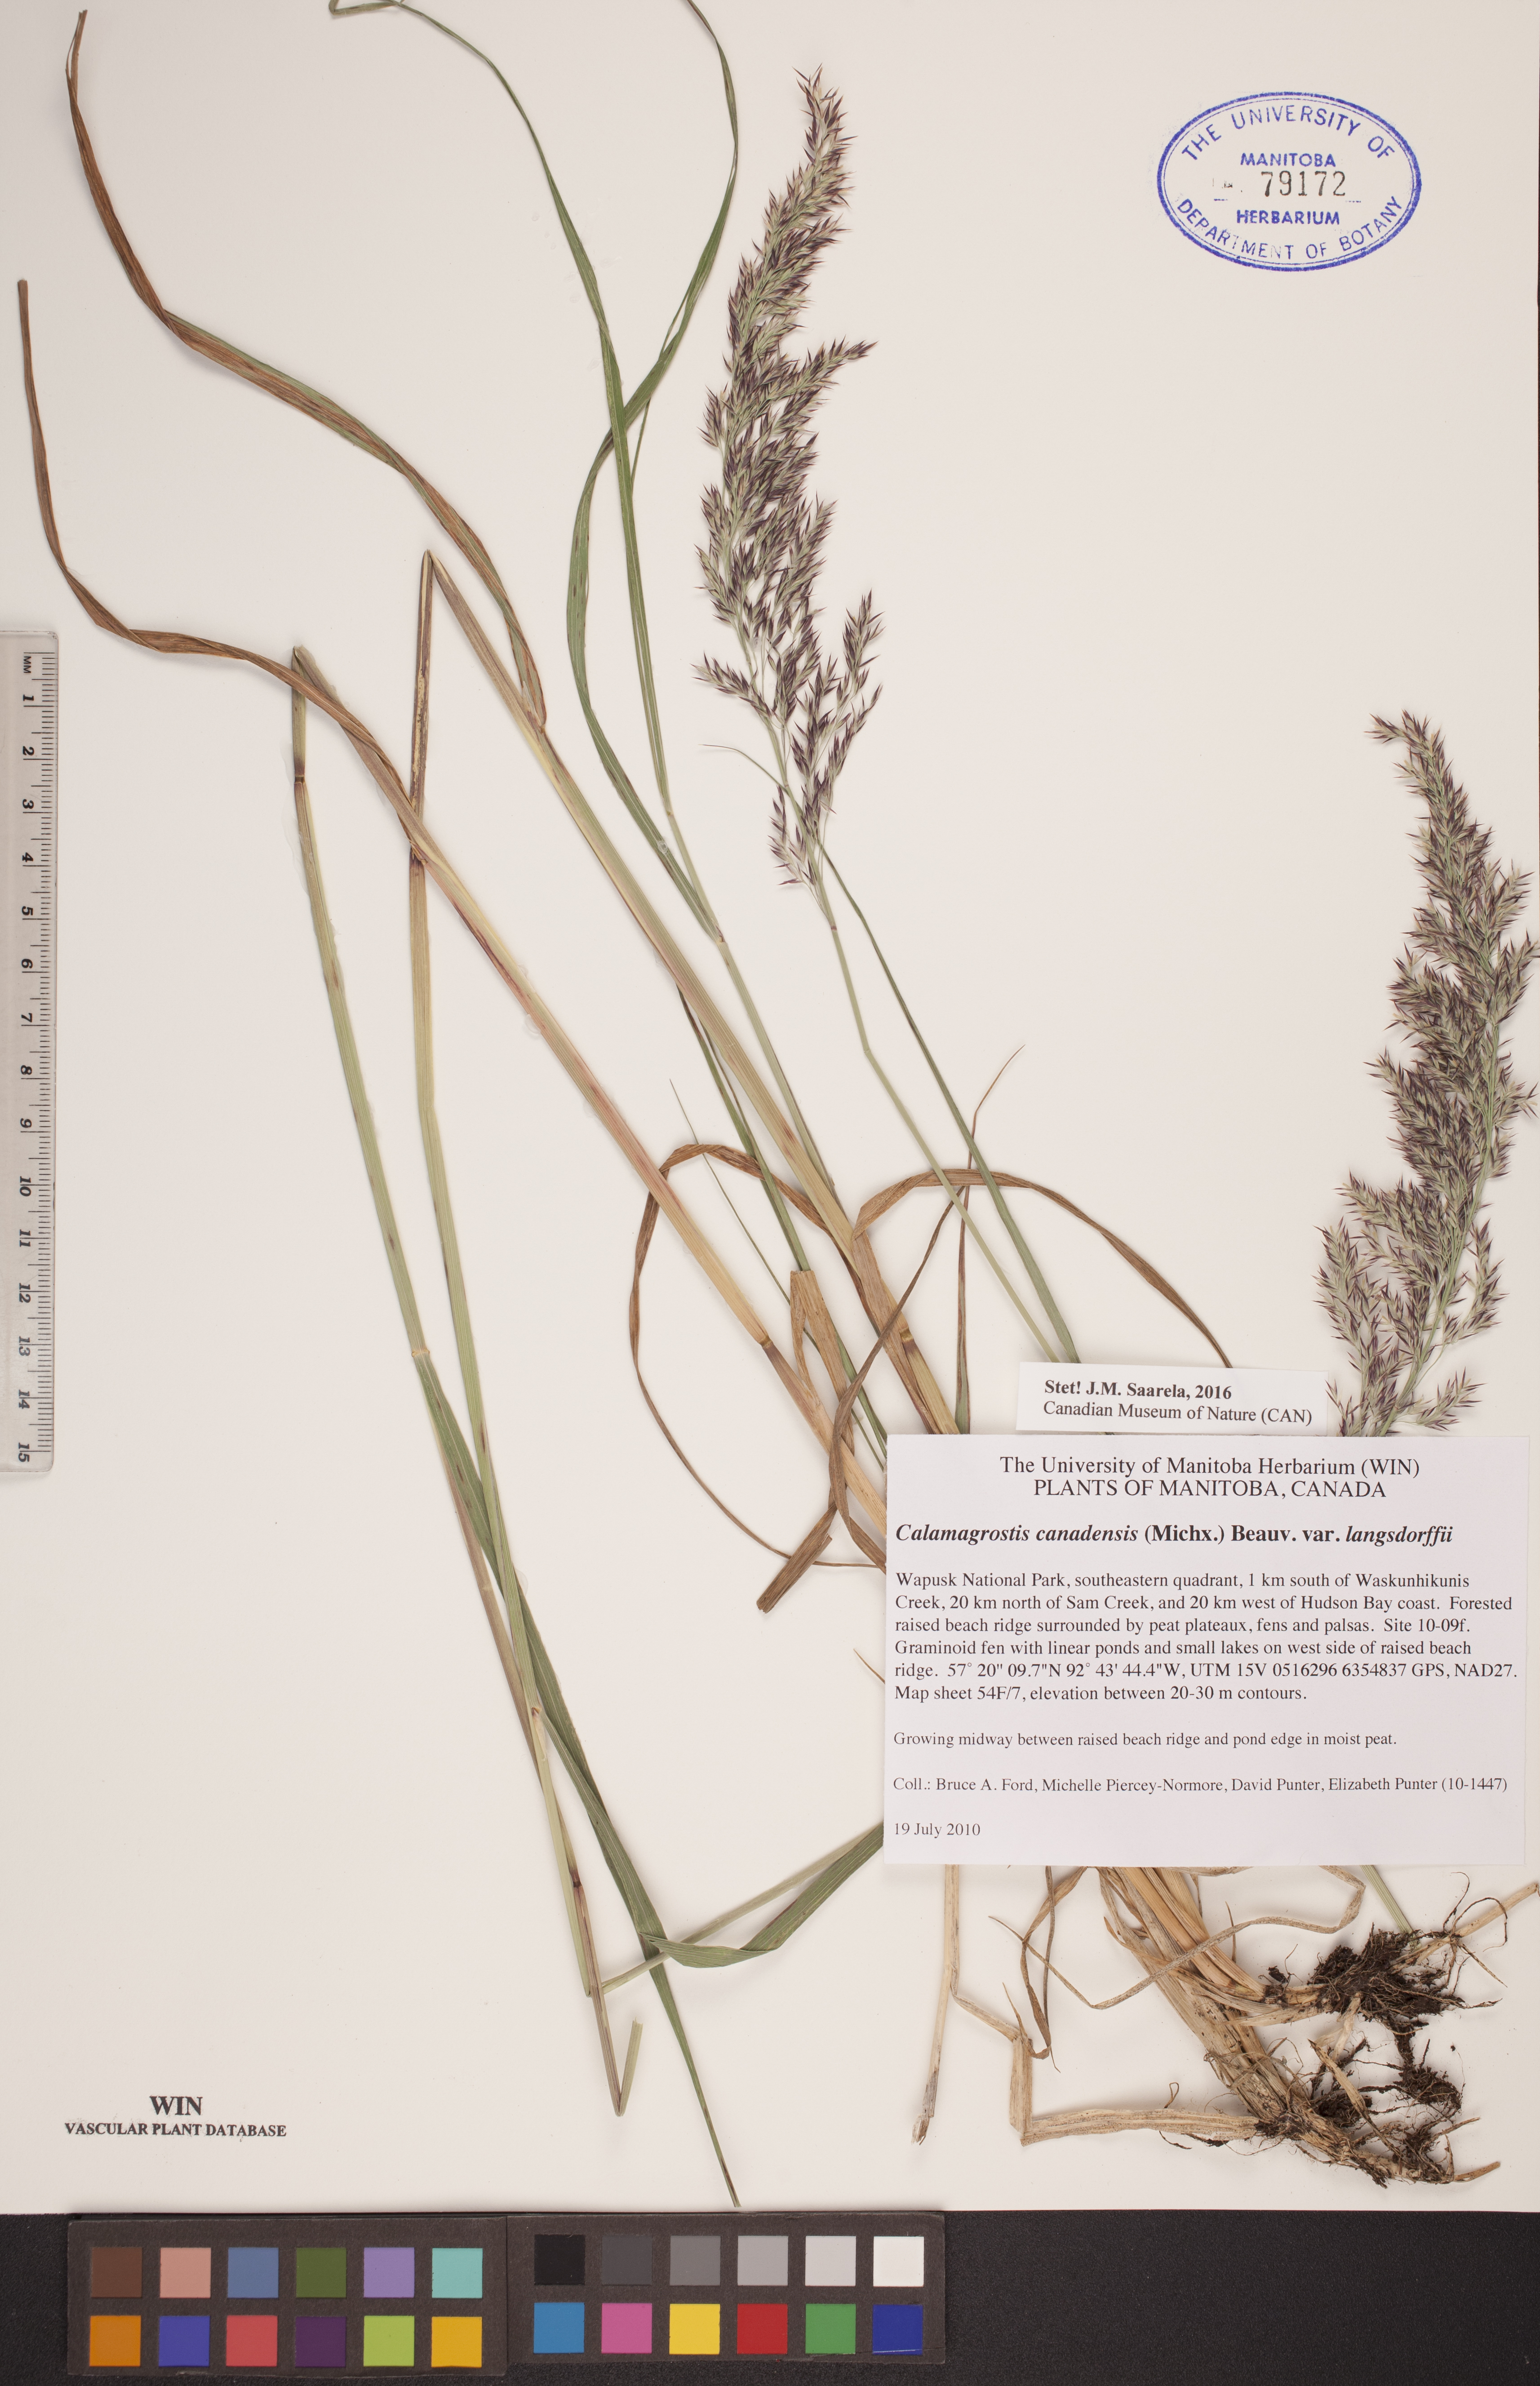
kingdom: Plantae
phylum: Tracheophyta
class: Liliopsida
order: Poales
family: Poaceae
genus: Calamagrostis
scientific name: Calamagrostis purpurea
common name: Scandinavian small-reed
